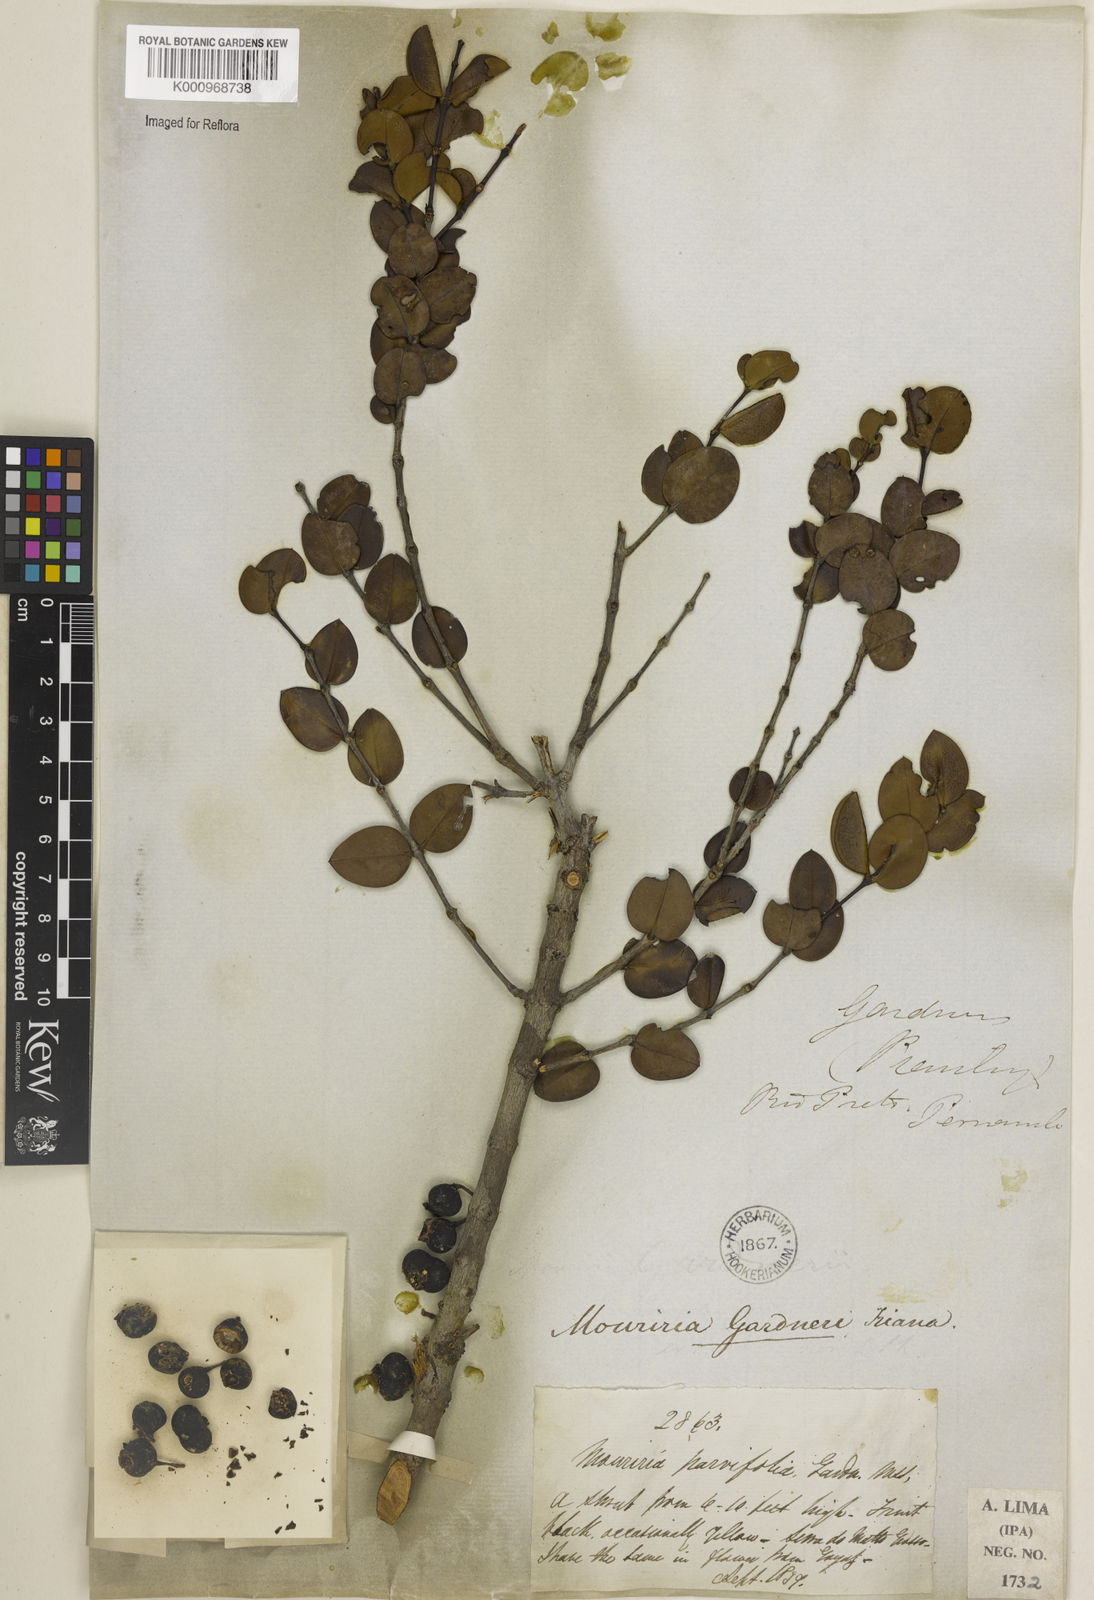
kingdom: Plantae
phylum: Tracheophyta
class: Magnoliopsida
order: Myrtales
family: Melastomataceae
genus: Mouriri
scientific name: Mouriri guianensis
